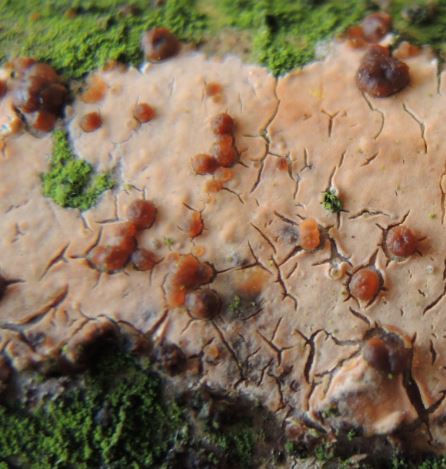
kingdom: Fungi
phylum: Basidiomycota
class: Tremellomycetes
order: Tremellales
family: Tremellaceae
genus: Tremella
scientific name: Tremella versicolor
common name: voksskind-bævresvamp
